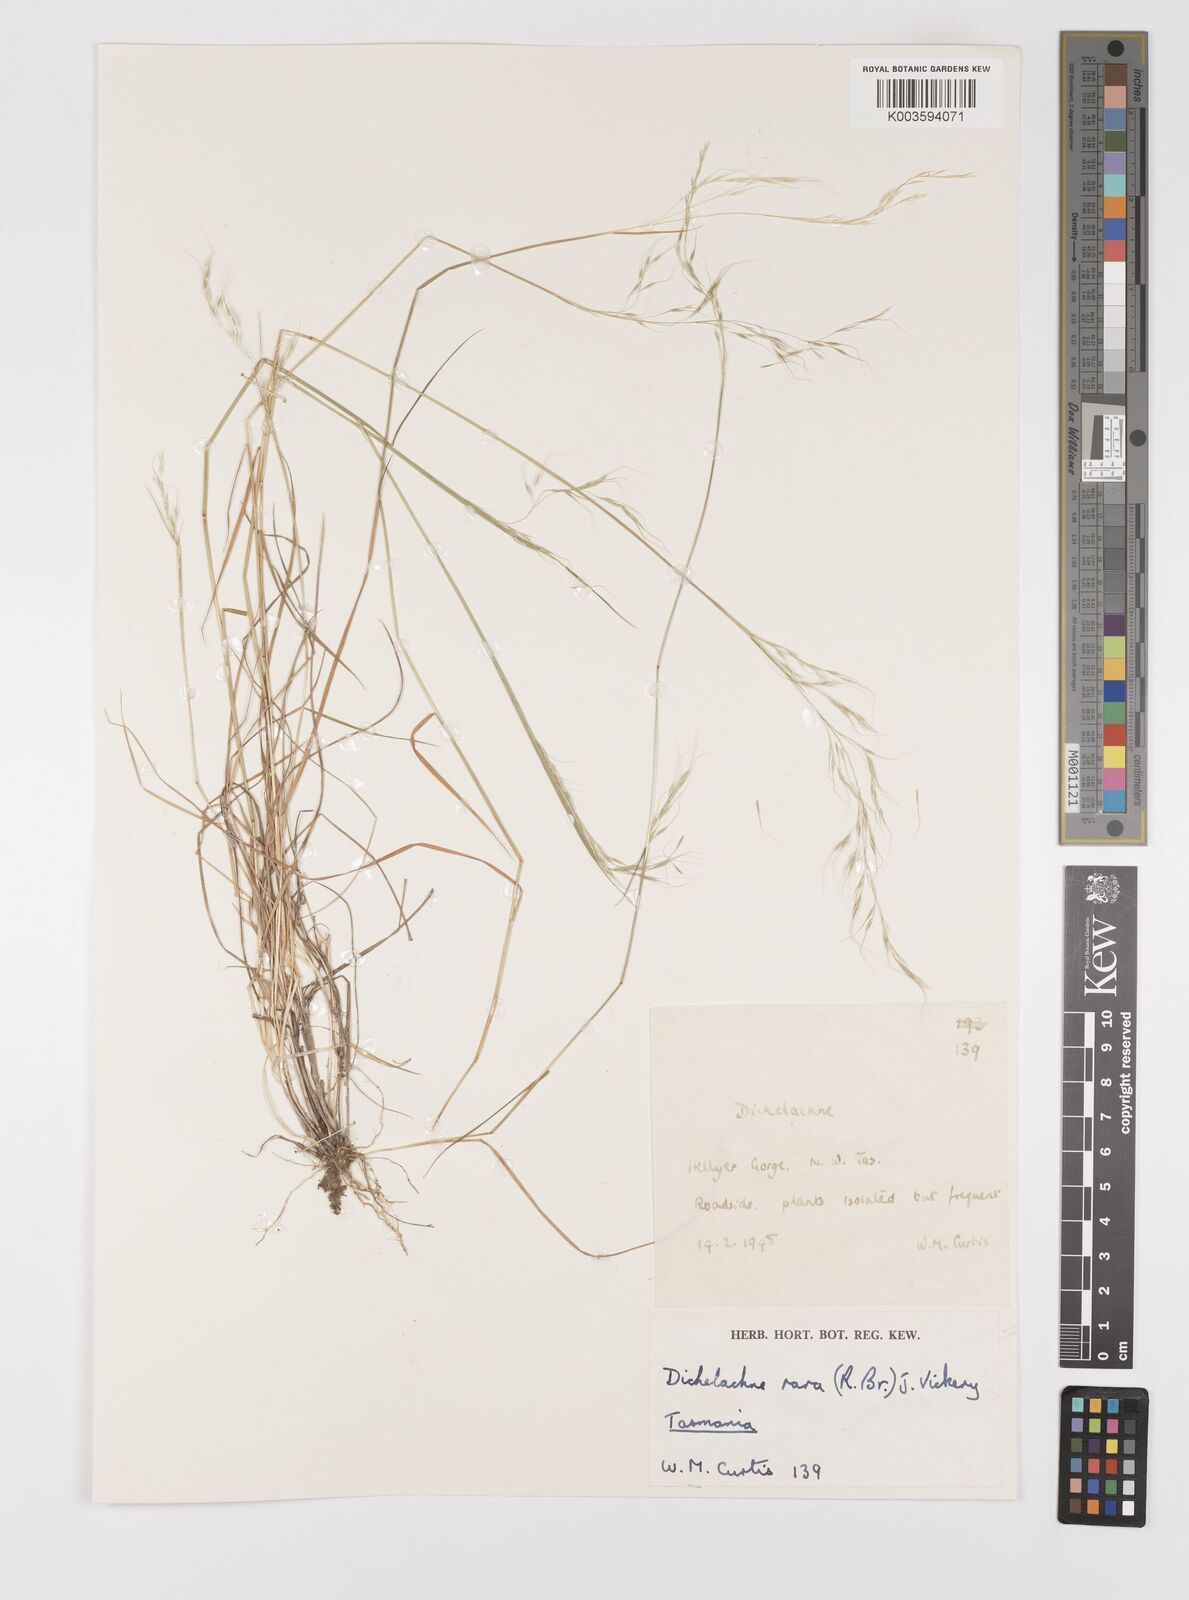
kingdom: Plantae
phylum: Tracheophyta
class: Liliopsida
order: Poales
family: Poaceae
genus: Dichelachne
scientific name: Dichelachne rara
